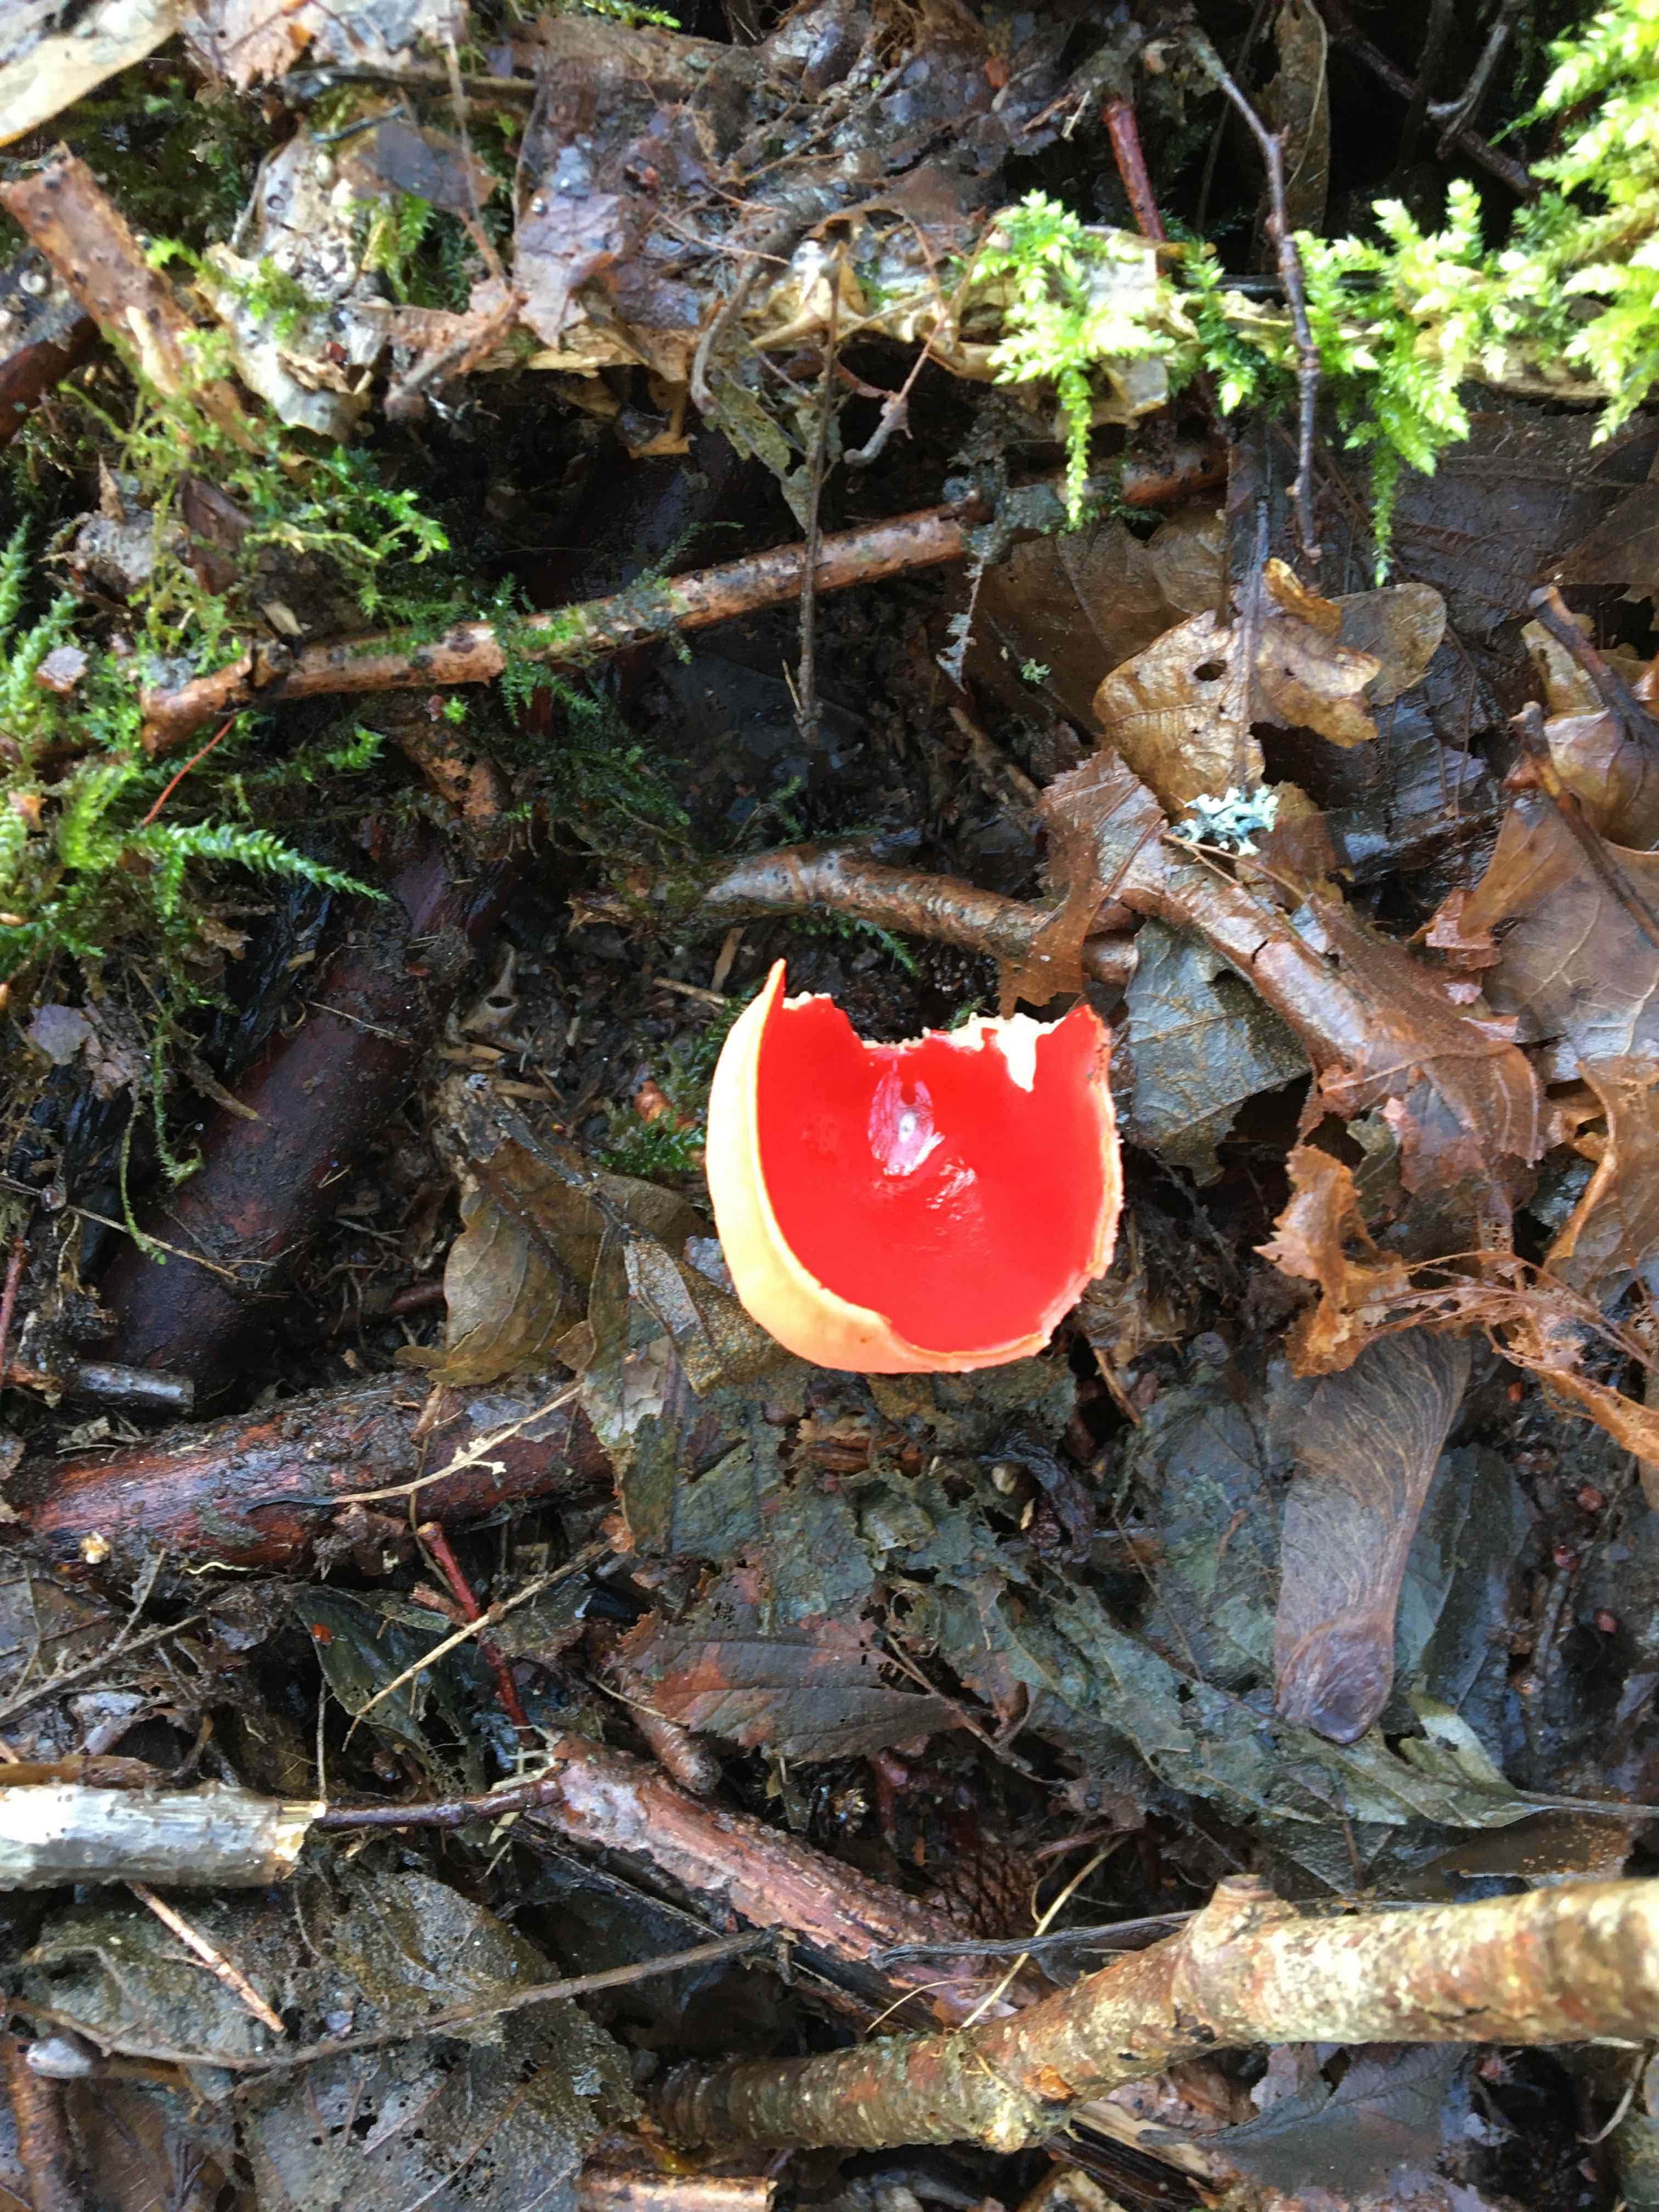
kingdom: Fungi
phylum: Ascomycota
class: Pezizomycetes
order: Pezizales
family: Sarcoscyphaceae
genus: Sarcoscypha
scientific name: Sarcoscypha austriaca
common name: krølhåret pragtbæger
